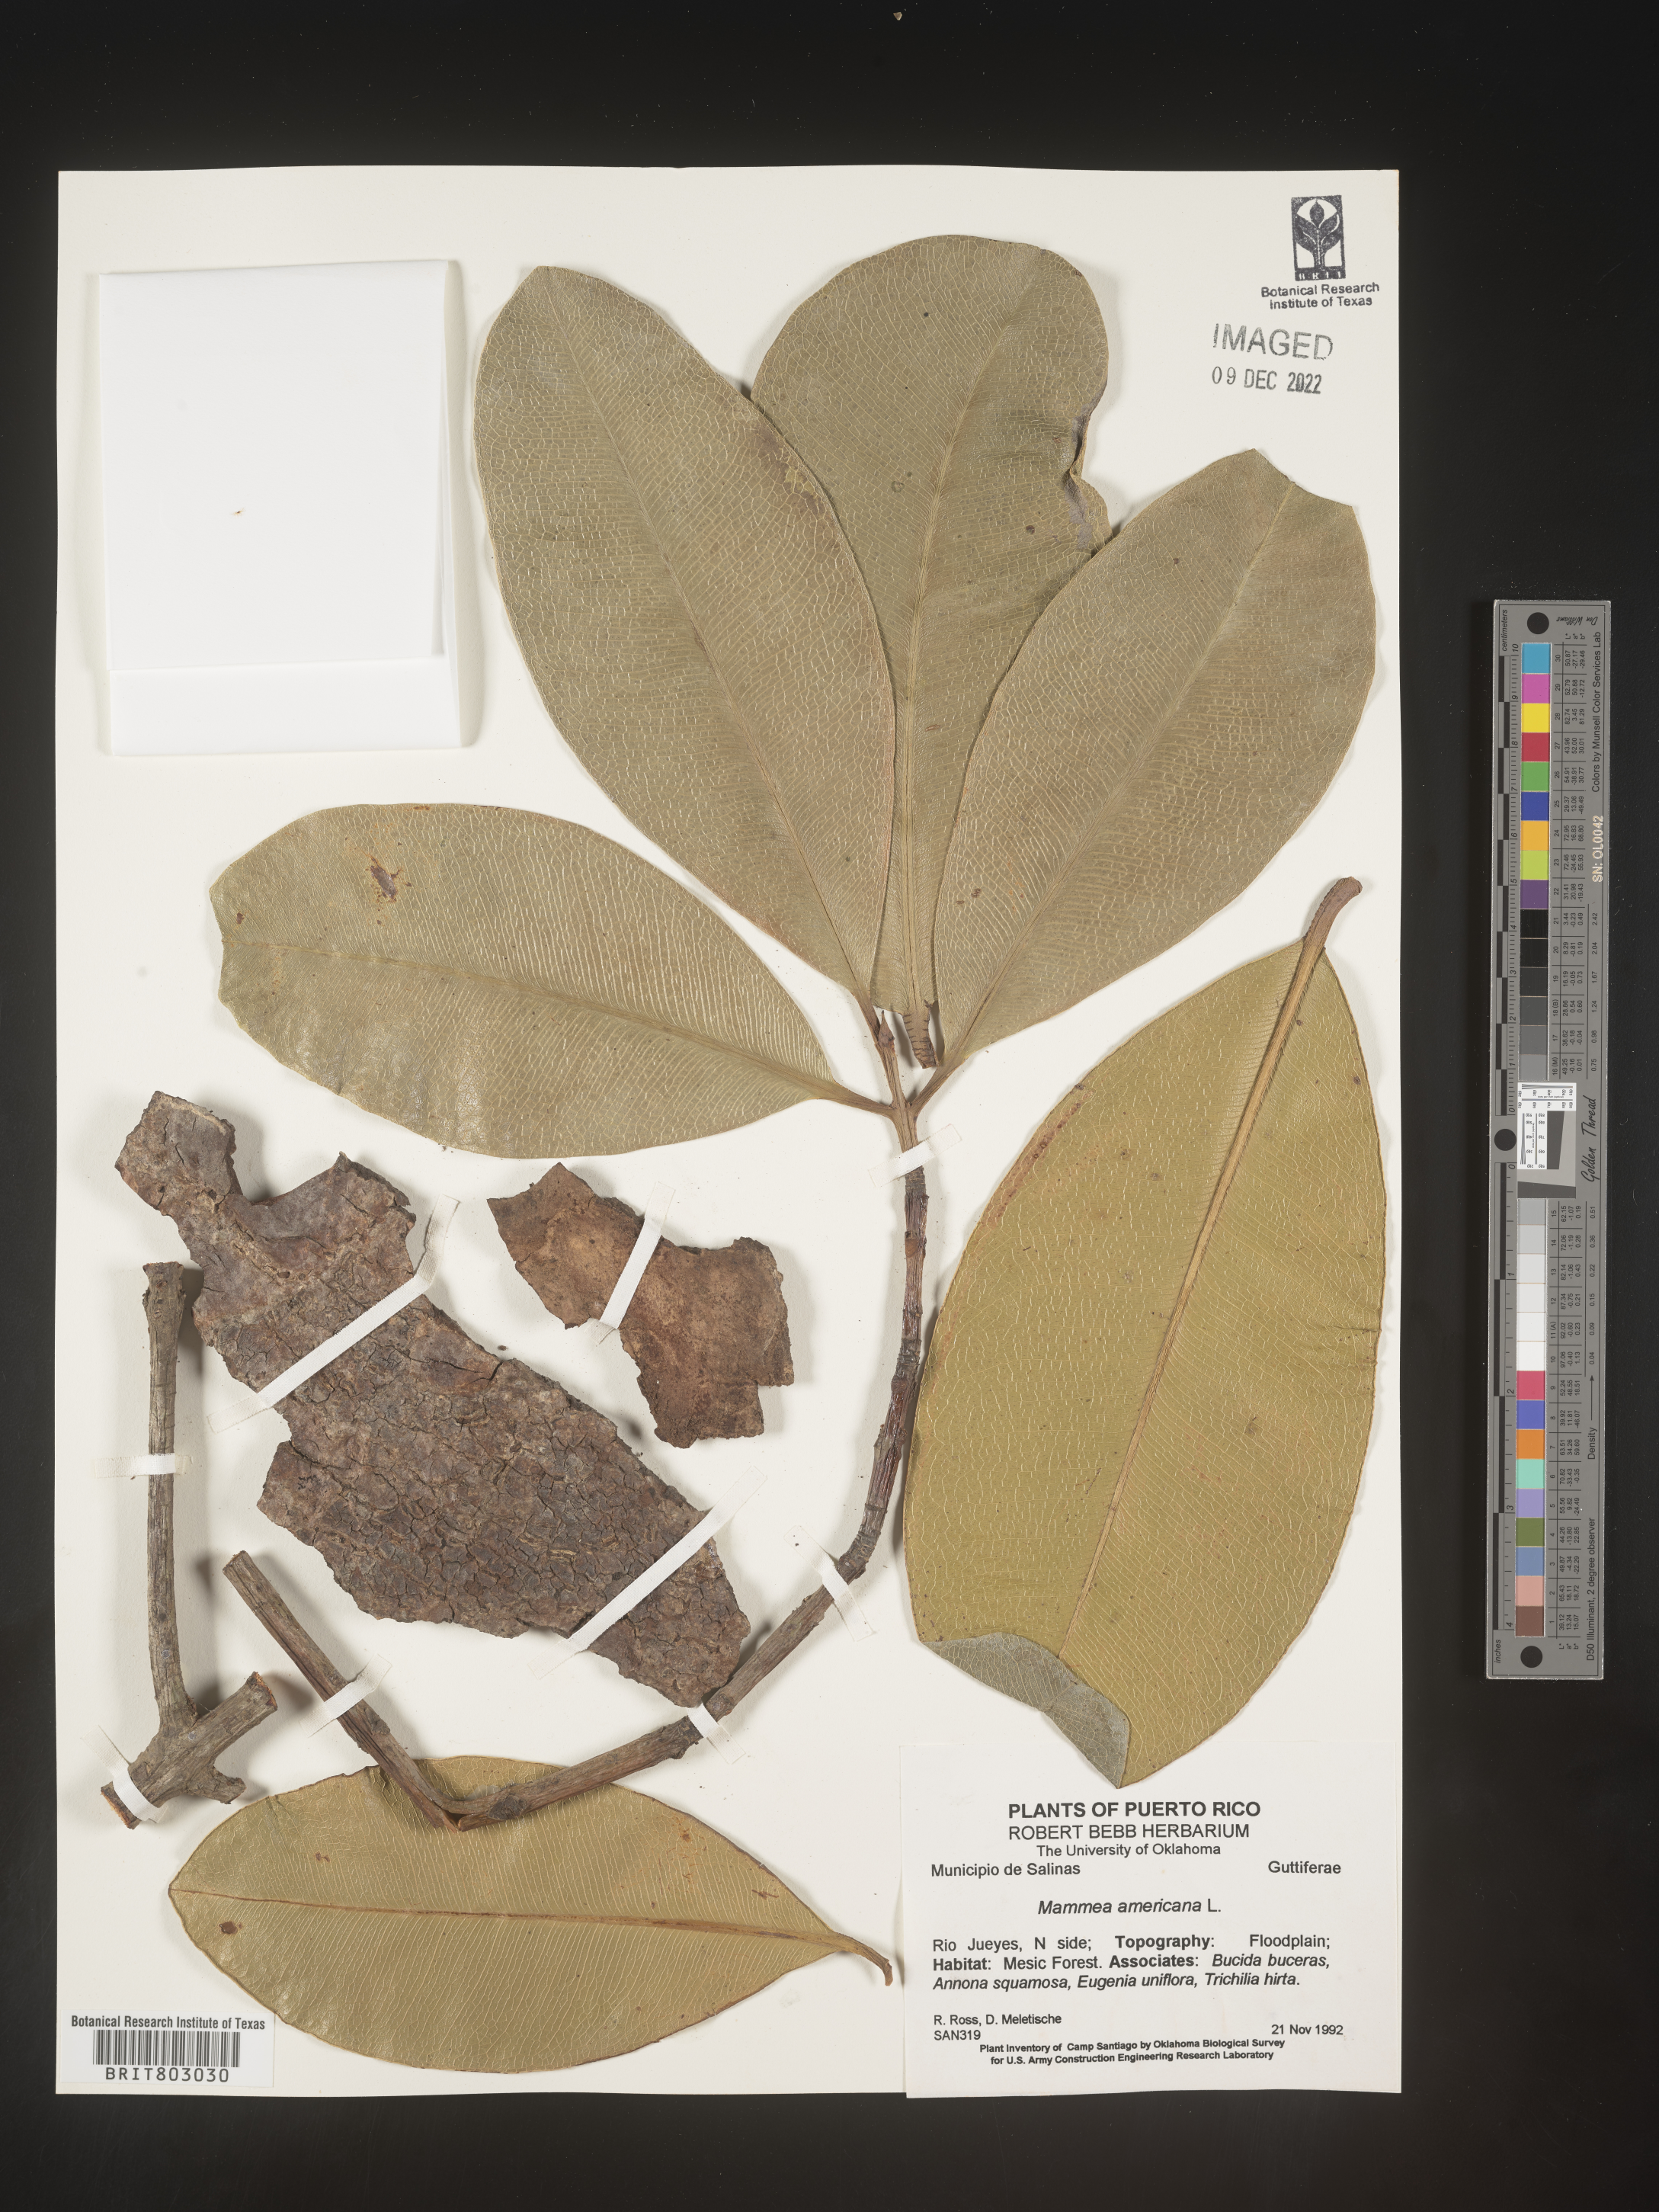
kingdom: Plantae
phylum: Tracheophyta
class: Magnoliopsida
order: Malpighiales
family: Calophyllaceae
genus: Mammea
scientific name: Mammea
